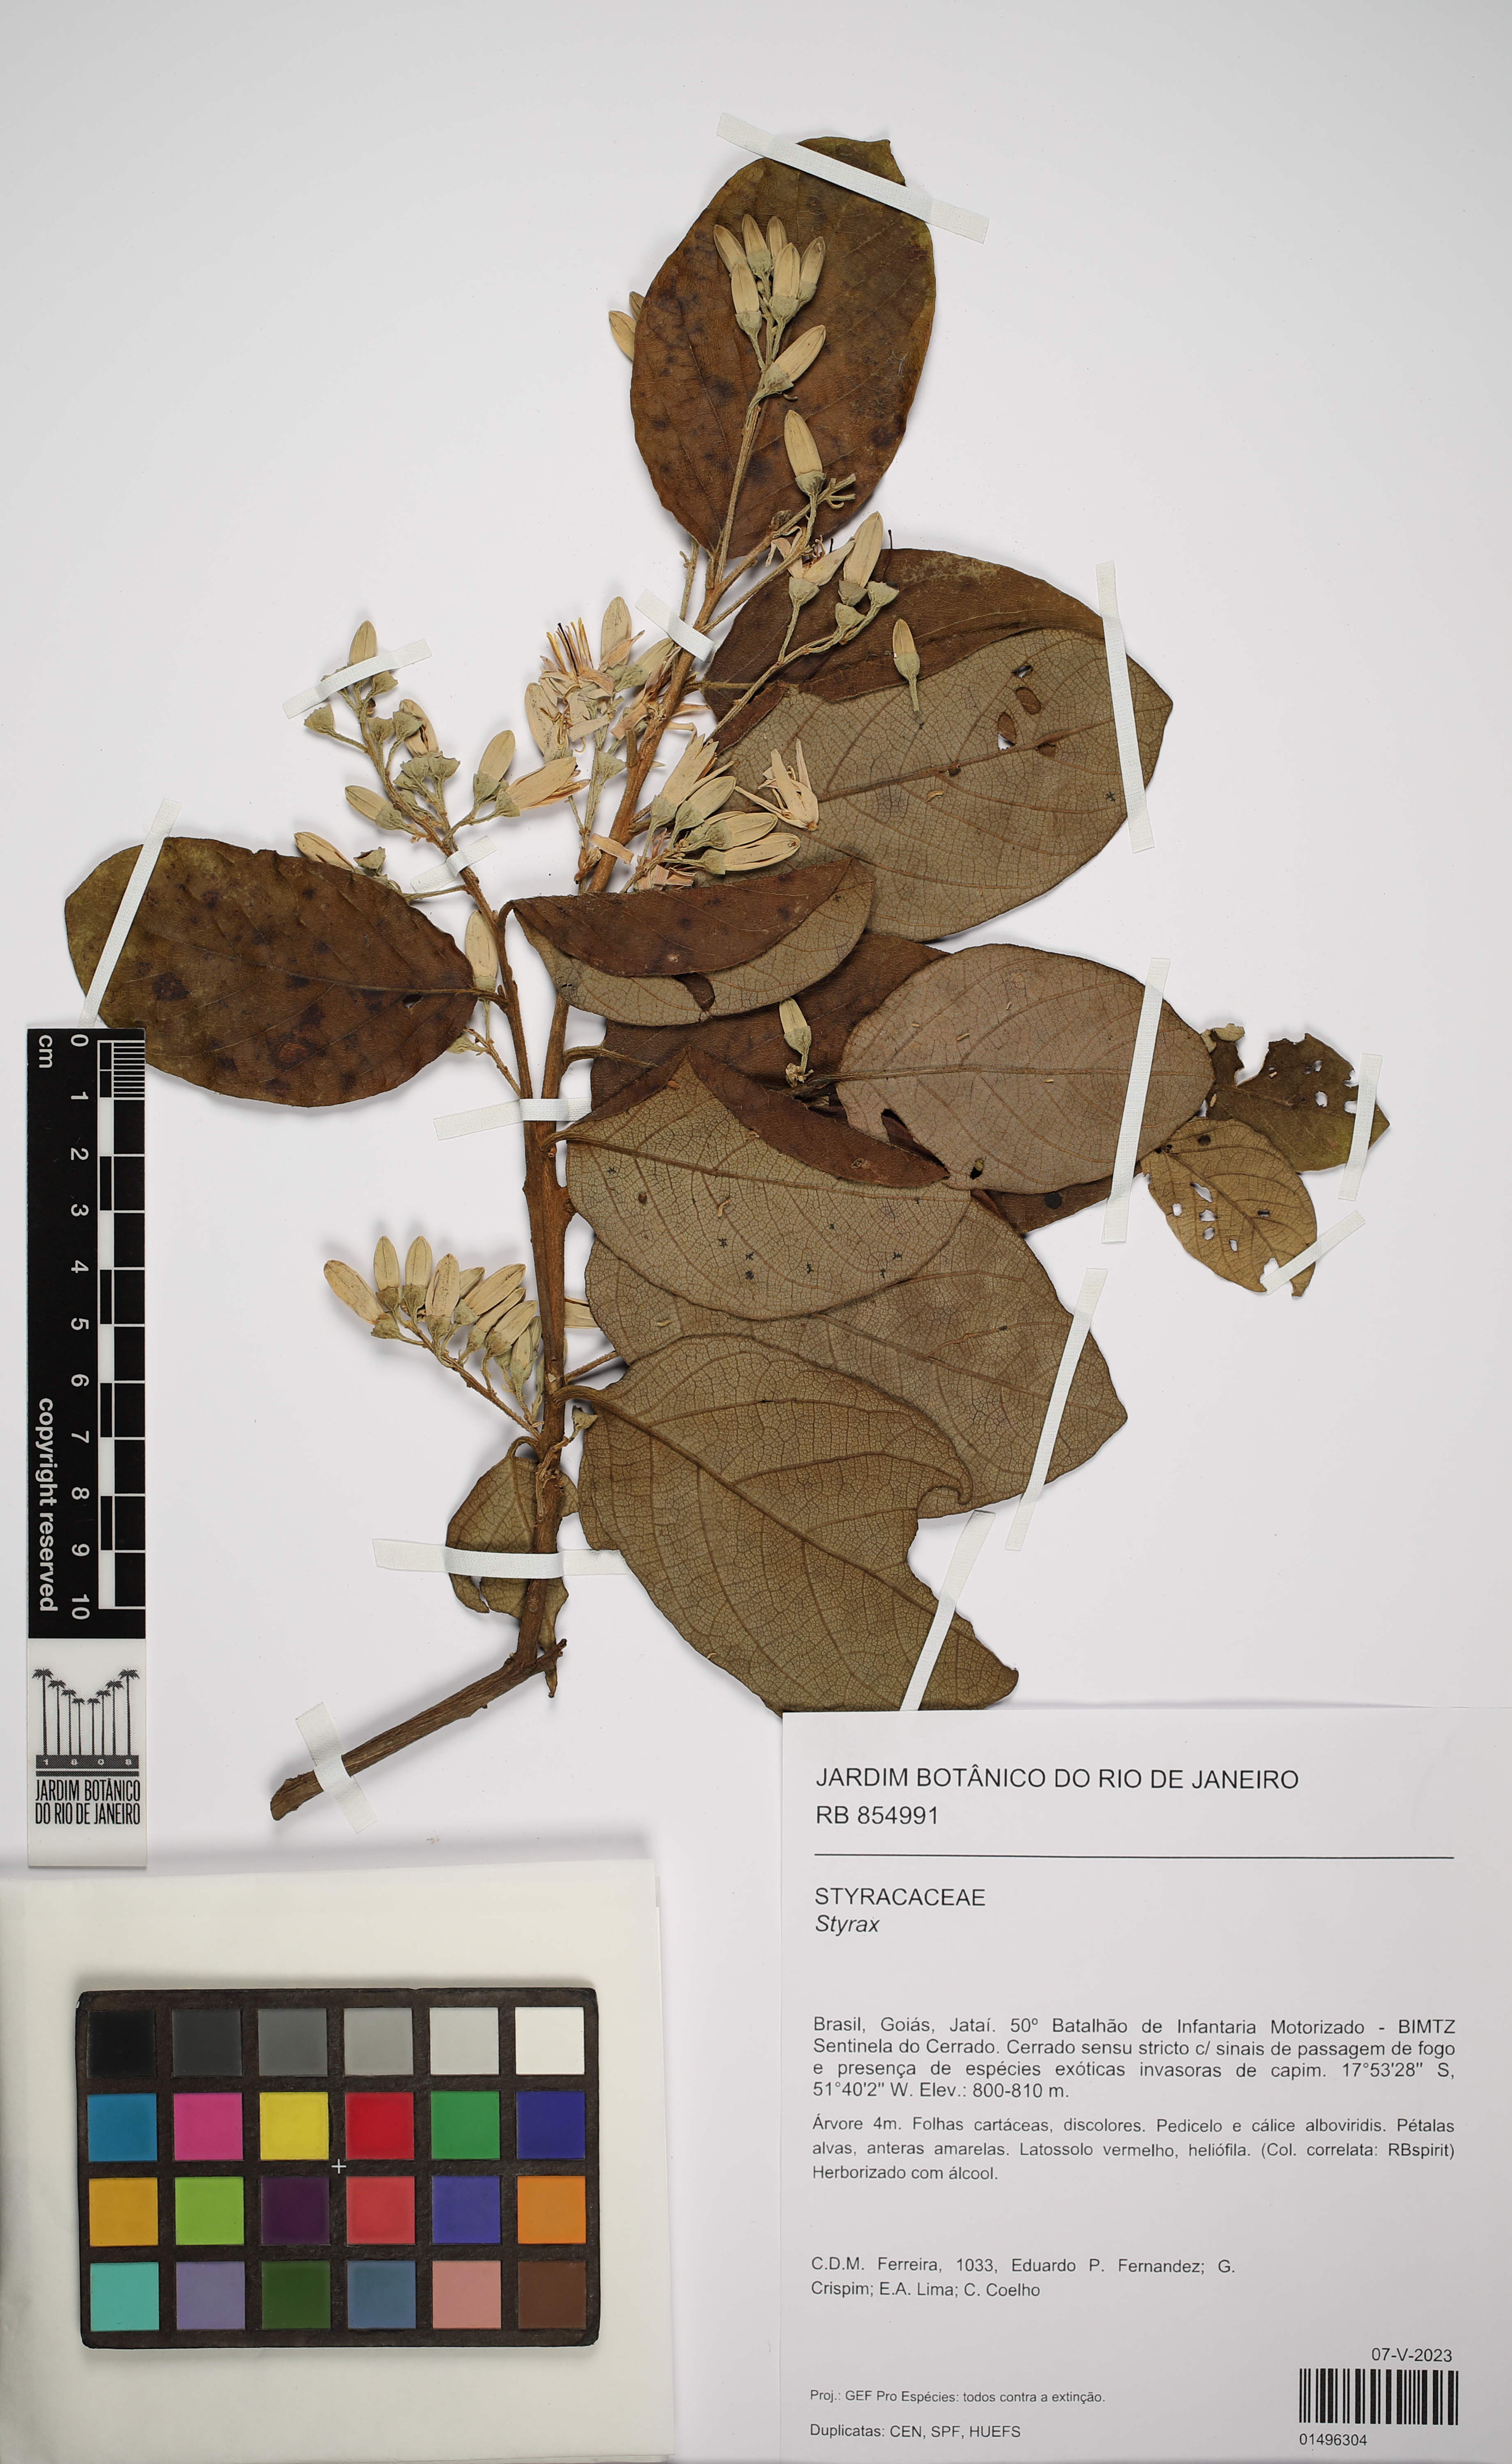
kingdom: Plantae
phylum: Tracheophyta
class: Magnoliopsida
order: Ericales
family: Styracaceae
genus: Styrax
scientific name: Styrax
